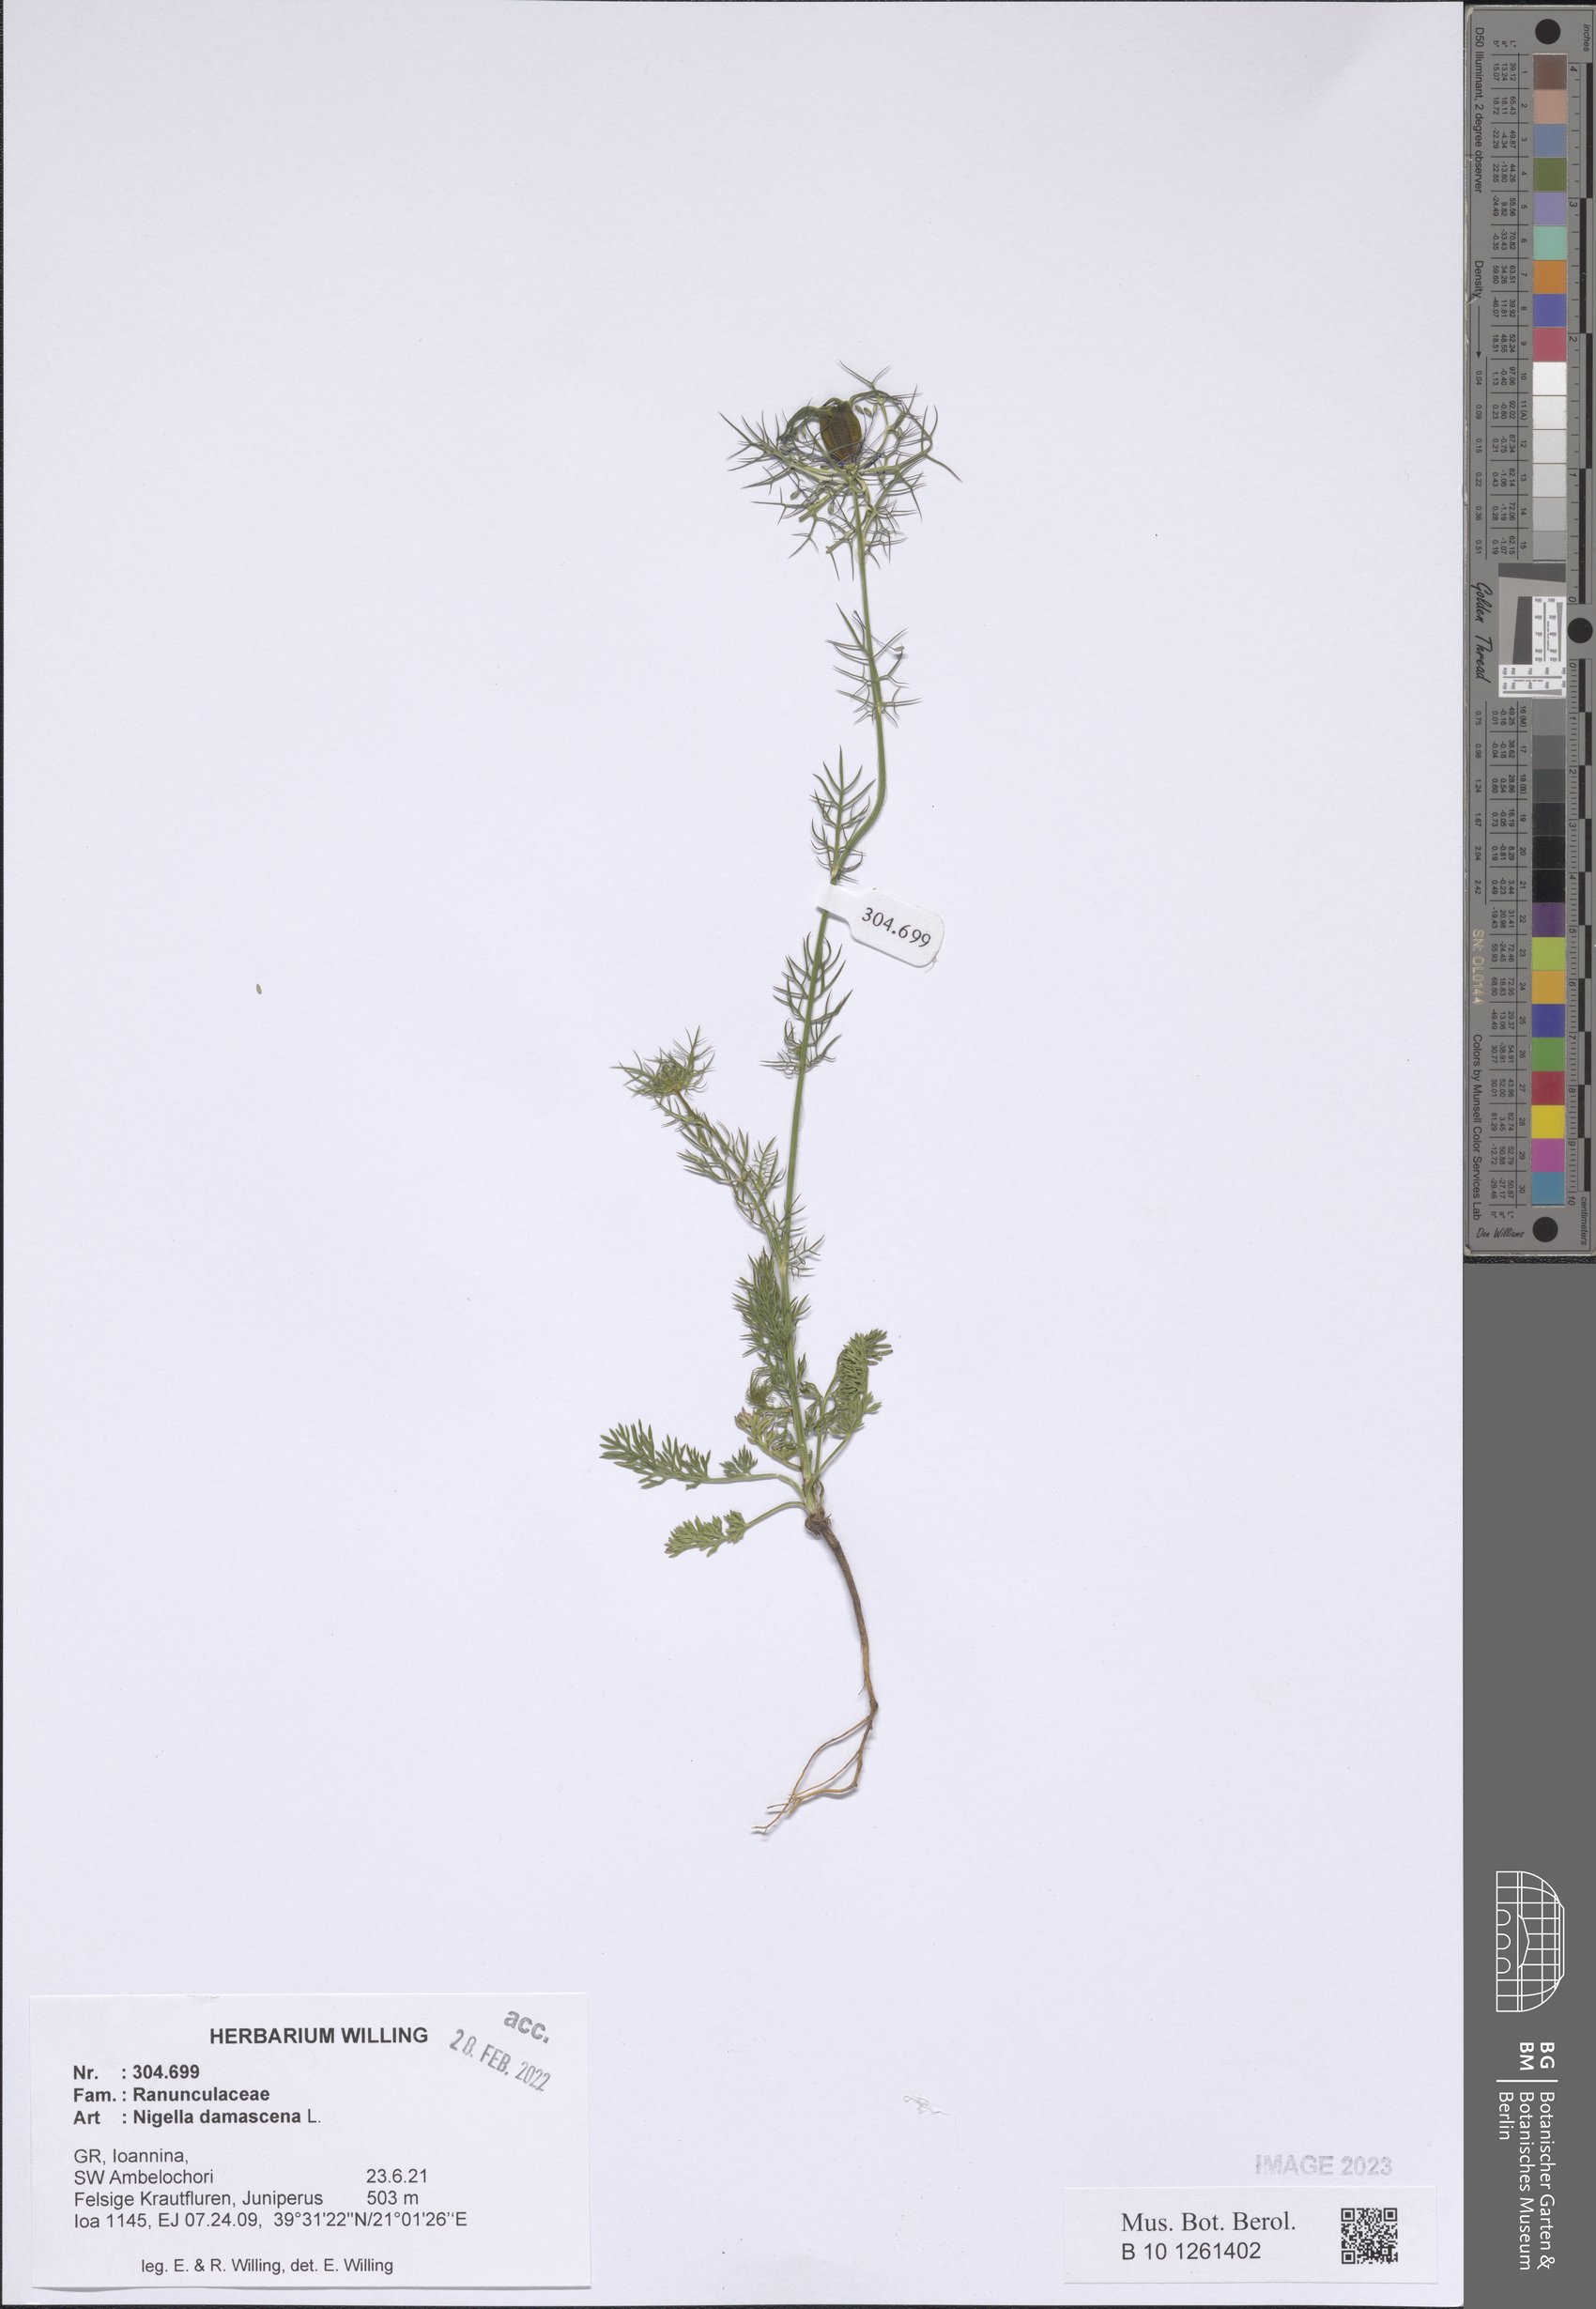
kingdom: Plantae
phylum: Tracheophyta
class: Magnoliopsida
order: Ranunculales
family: Ranunculaceae
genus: Nigella
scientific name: Nigella damascena
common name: Love-in-a-mist
